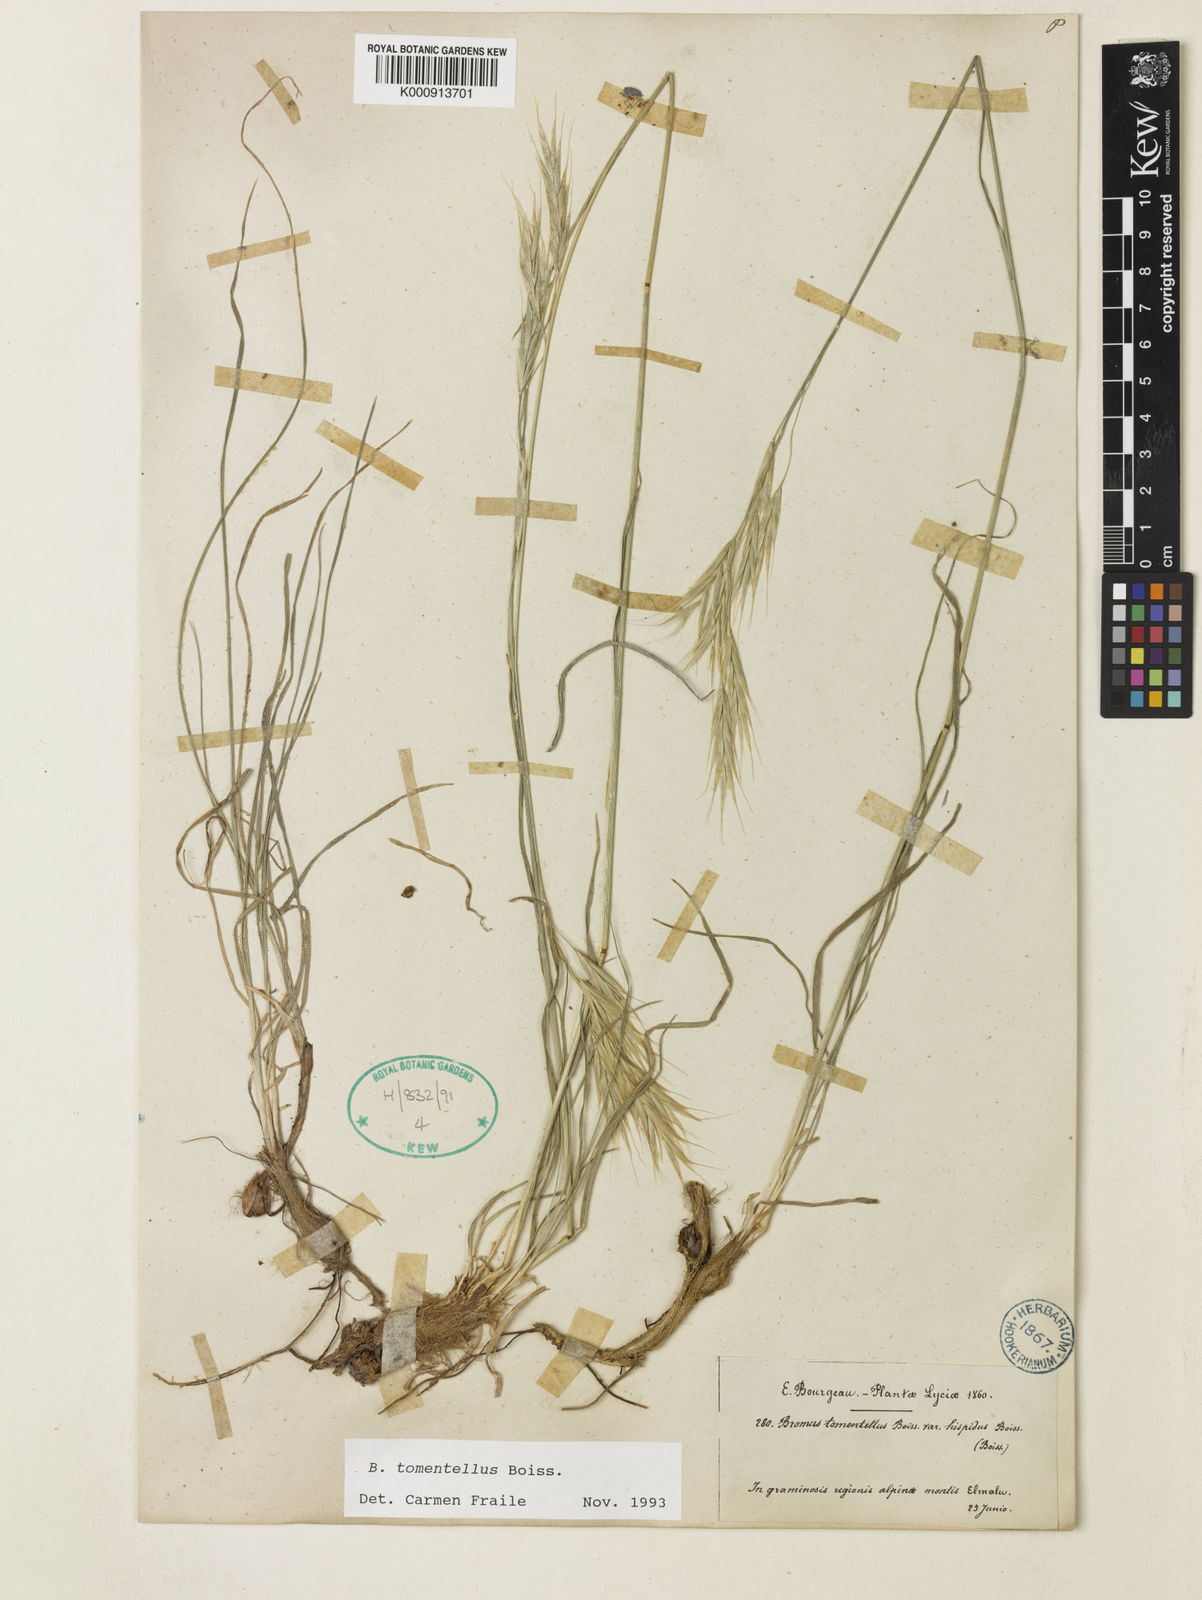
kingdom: Plantae
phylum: Tracheophyta
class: Liliopsida
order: Poales
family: Poaceae
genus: Bromus
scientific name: Bromus tomentellus
